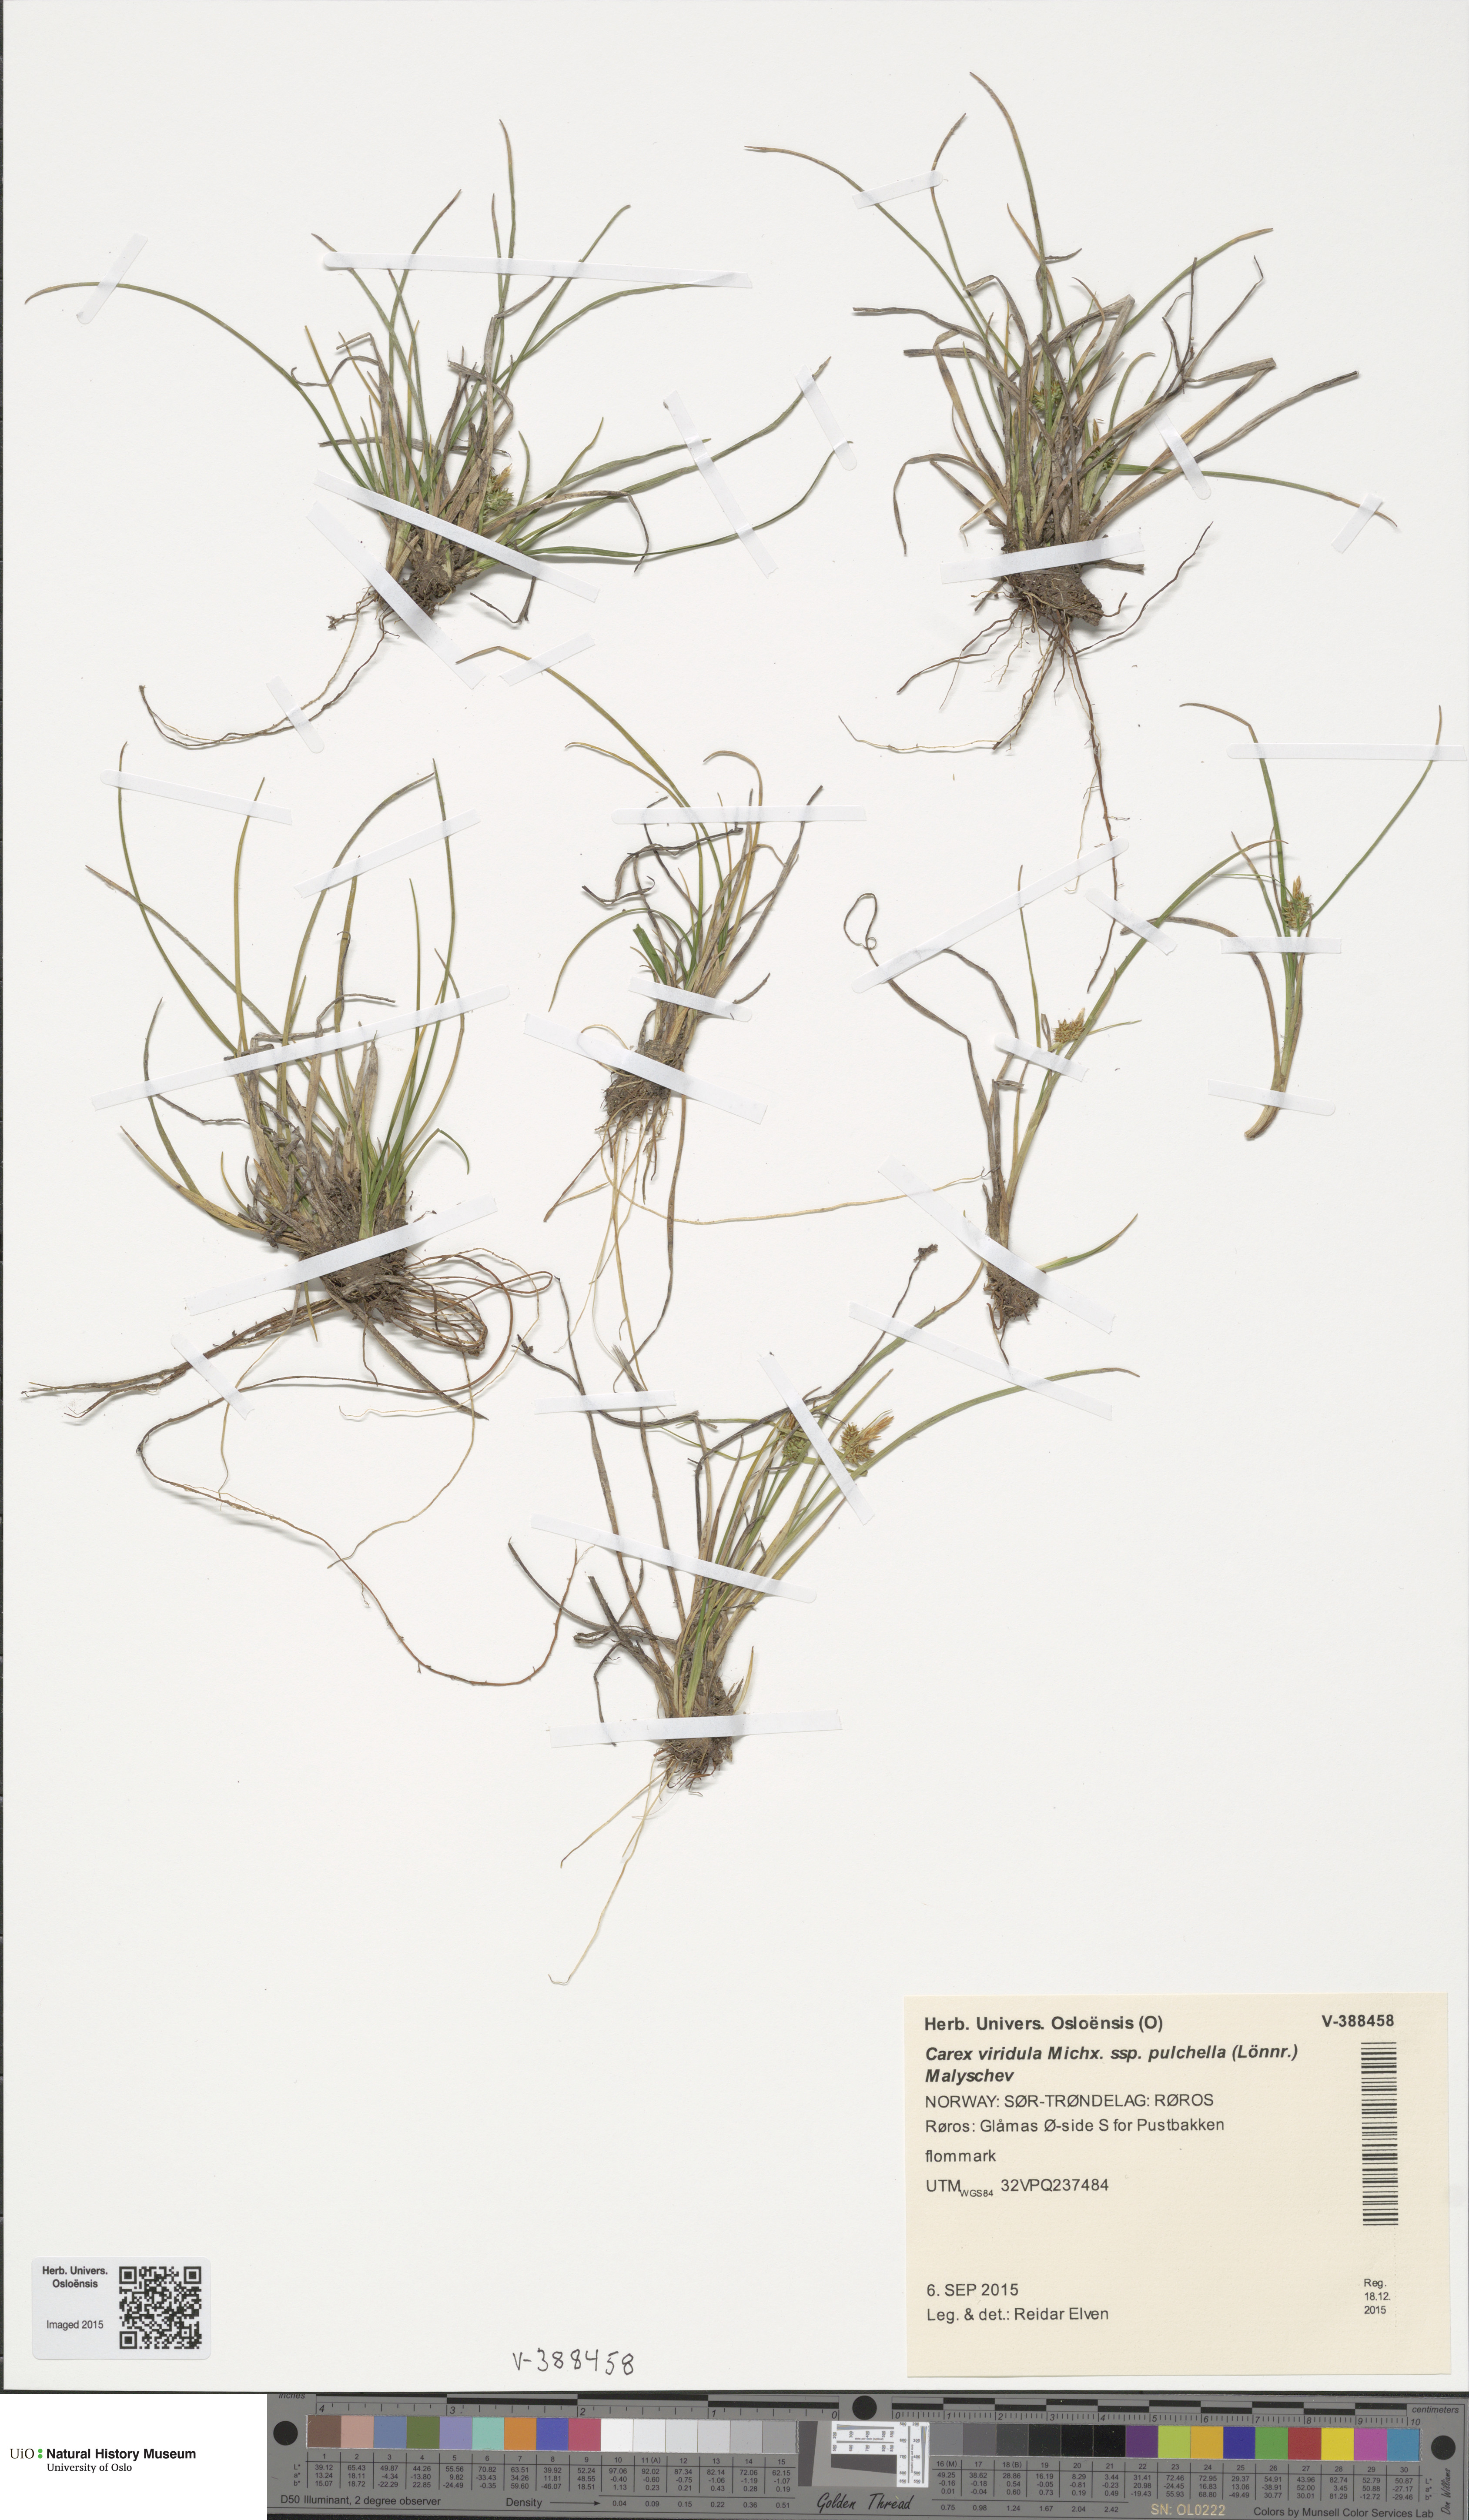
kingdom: Plantae
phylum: Tracheophyta
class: Liliopsida
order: Poales
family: Cyperaceae
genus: Carex
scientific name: Carex oederi
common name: Common & small-fruited yellow-sedge
